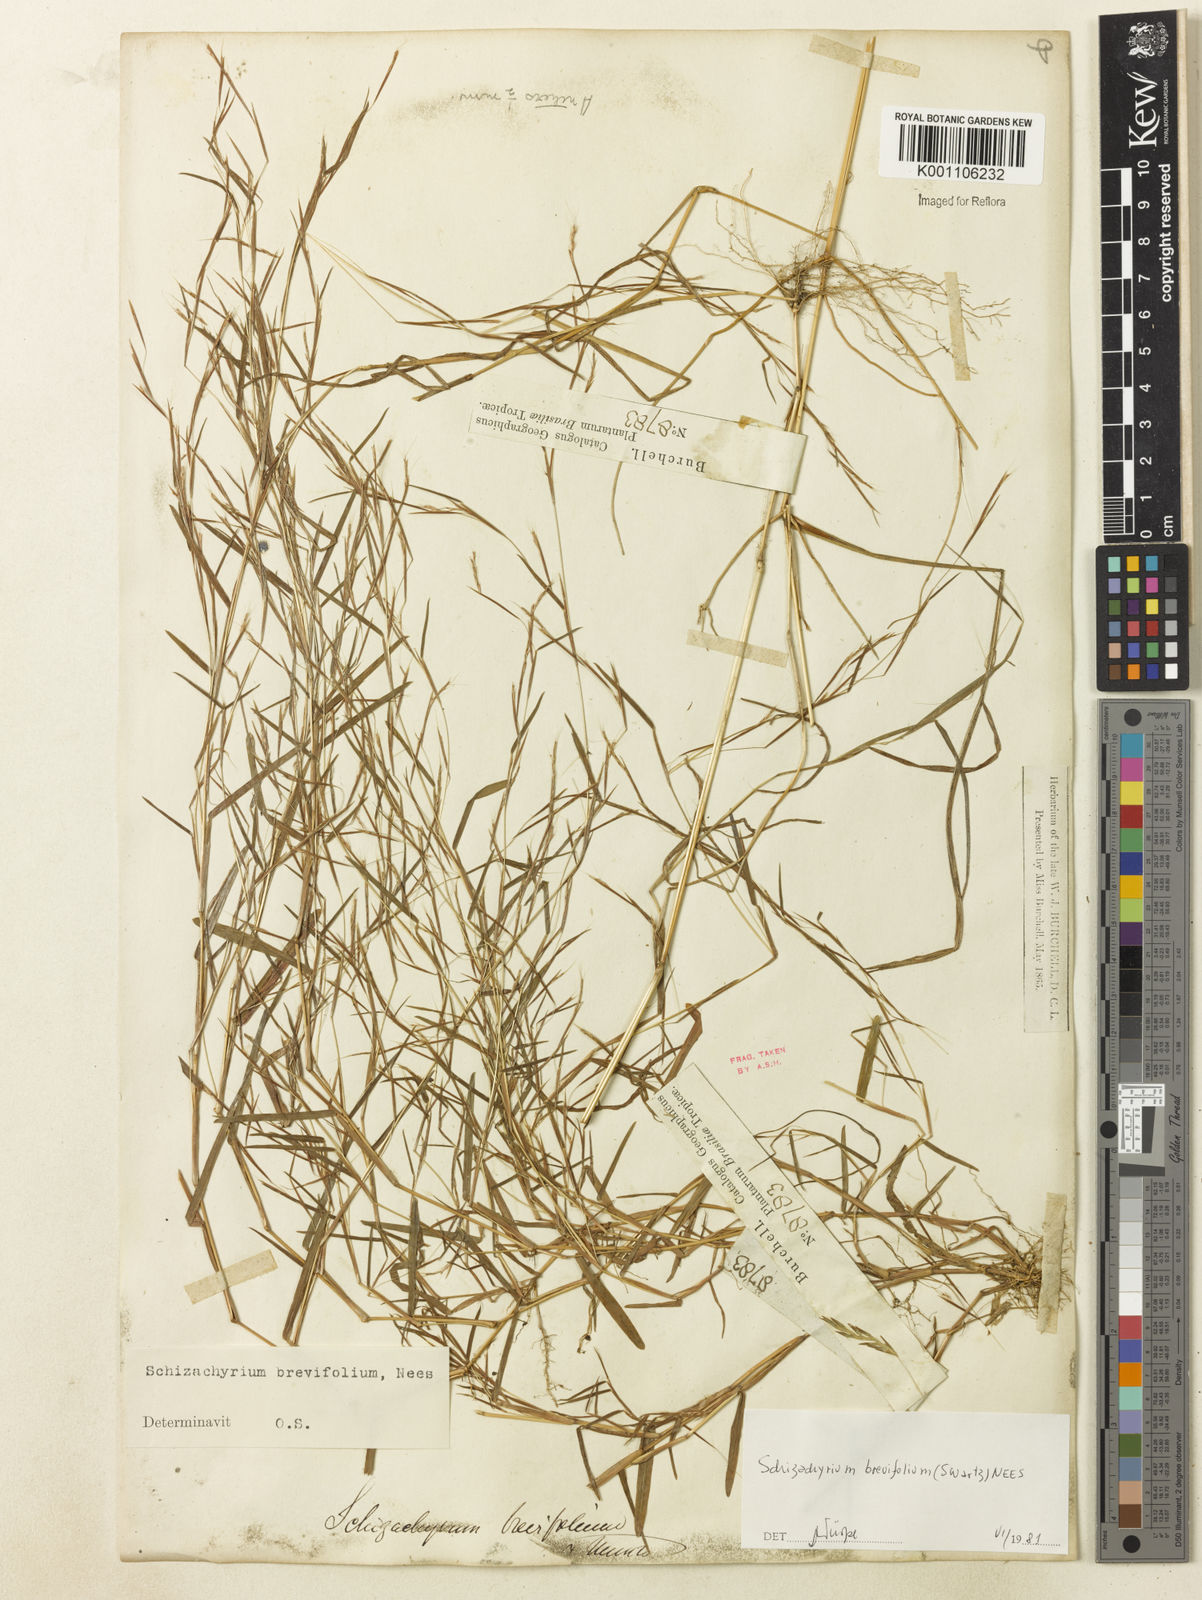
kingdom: Plantae
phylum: Tracheophyta
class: Liliopsida
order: Poales
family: Poaceae
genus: Schizachyrium
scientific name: Schizachyrium brevifolium
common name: Serillo dulce
